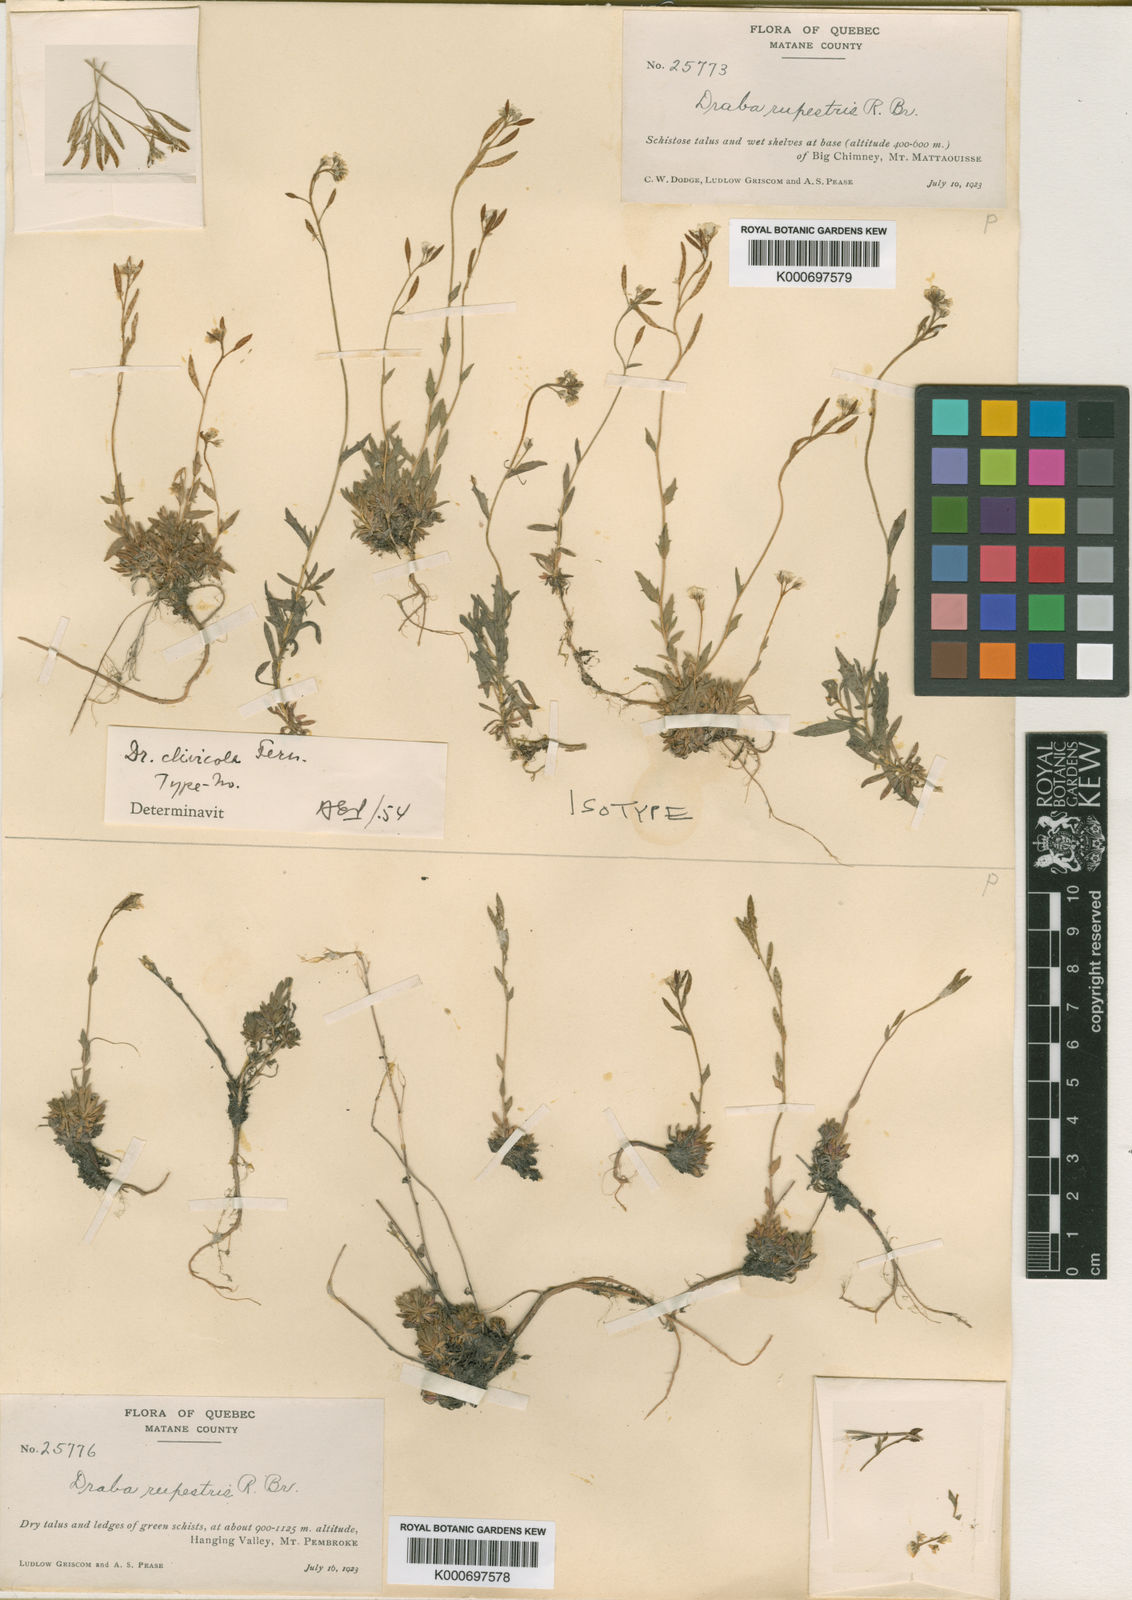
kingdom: Plantae
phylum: Tracheophyta
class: Magnoliopsida
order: Brassicales
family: Brassicaceae
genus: Draba
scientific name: Draba norvegica
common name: Rock whitlowgrass
